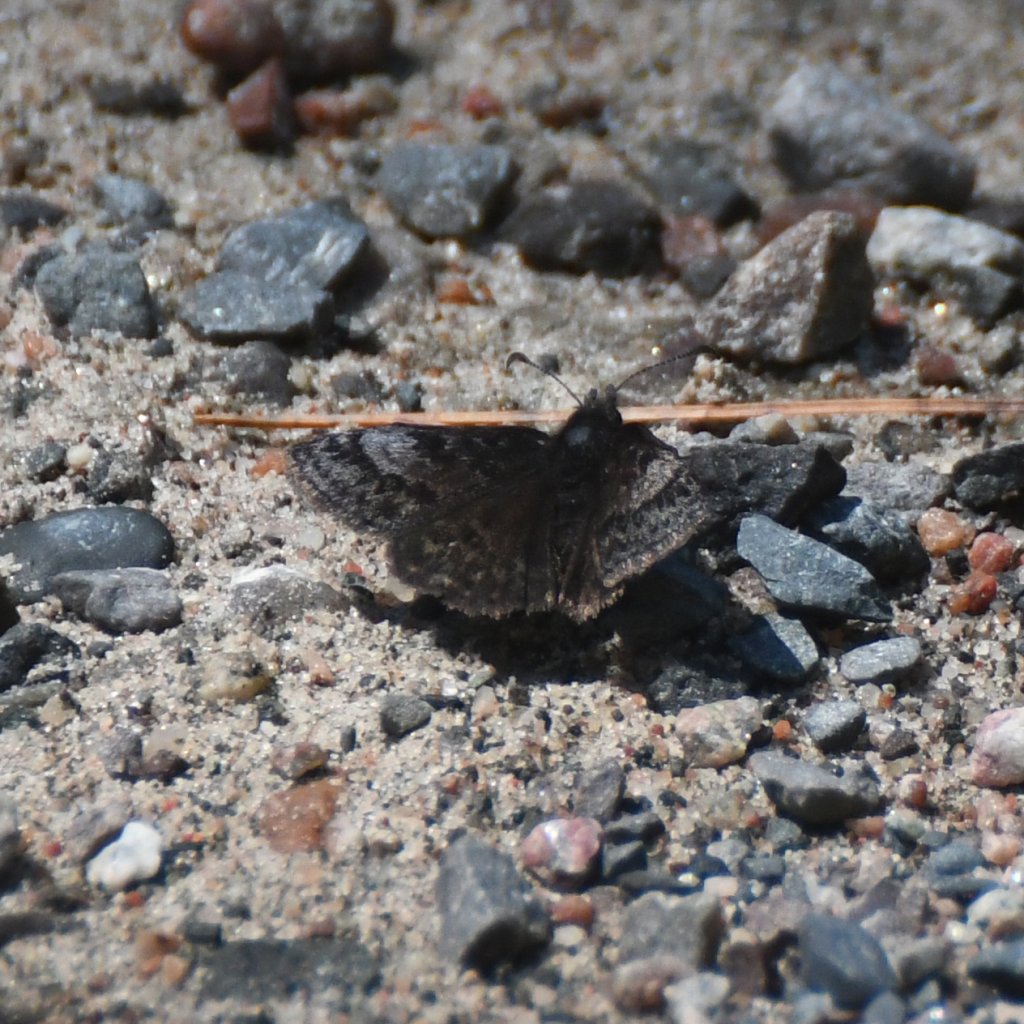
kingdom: Animalia
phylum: Arthropoda
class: Insecta
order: Lepidoptera
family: Hesperiidae
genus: Erynnis
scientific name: Erynnis icelus
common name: Dreamy Duskywing
